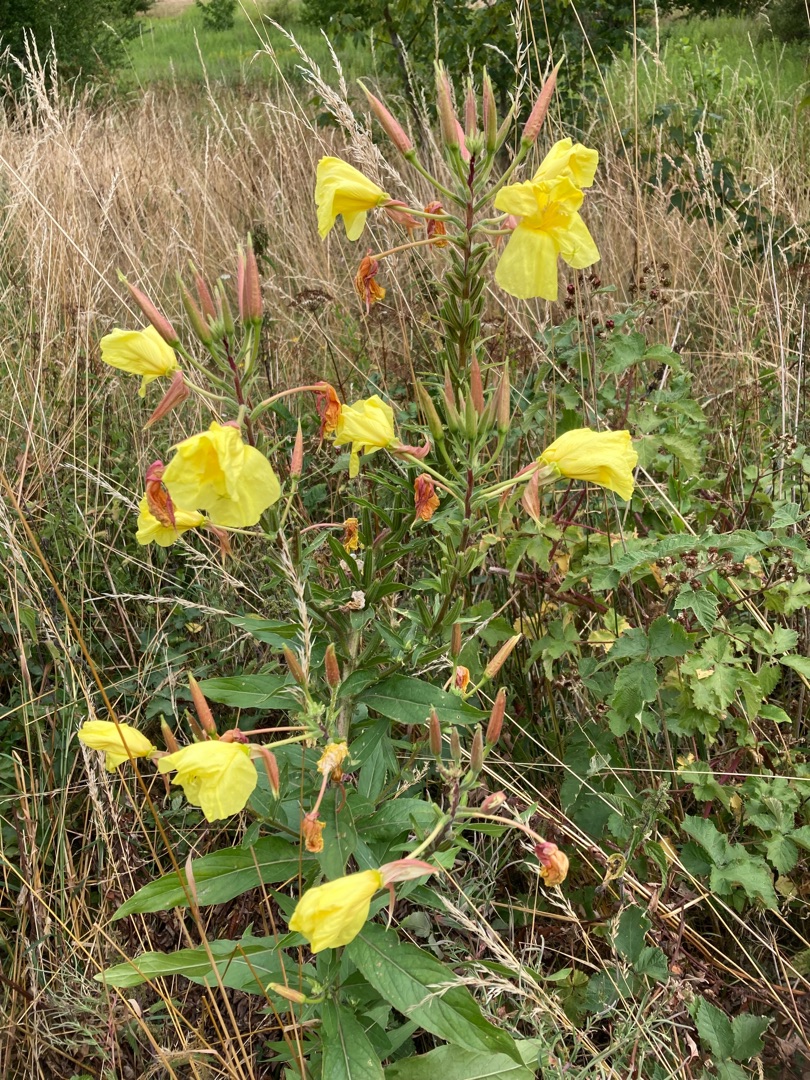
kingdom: Plantae
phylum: Tracheophyta
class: Magnoliopsida
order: Myrtales
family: Onagraceae
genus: Oenothera
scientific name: Oenothera glazioviana
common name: Kæmpe-natlys
